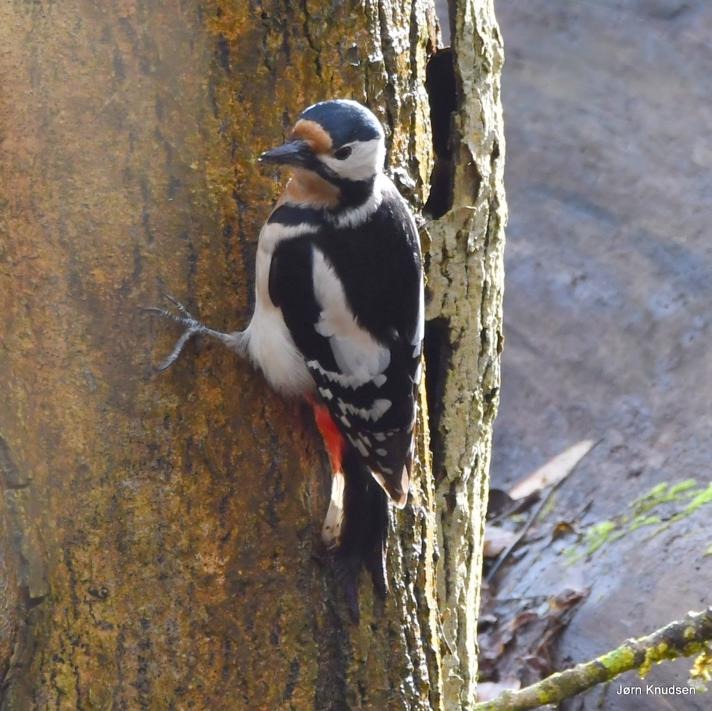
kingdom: Animalia
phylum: Chordata
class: Aves
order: Piciformes
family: Picidae
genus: Dendrocopos
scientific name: Dendrocopos major
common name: Stor flagspætte
